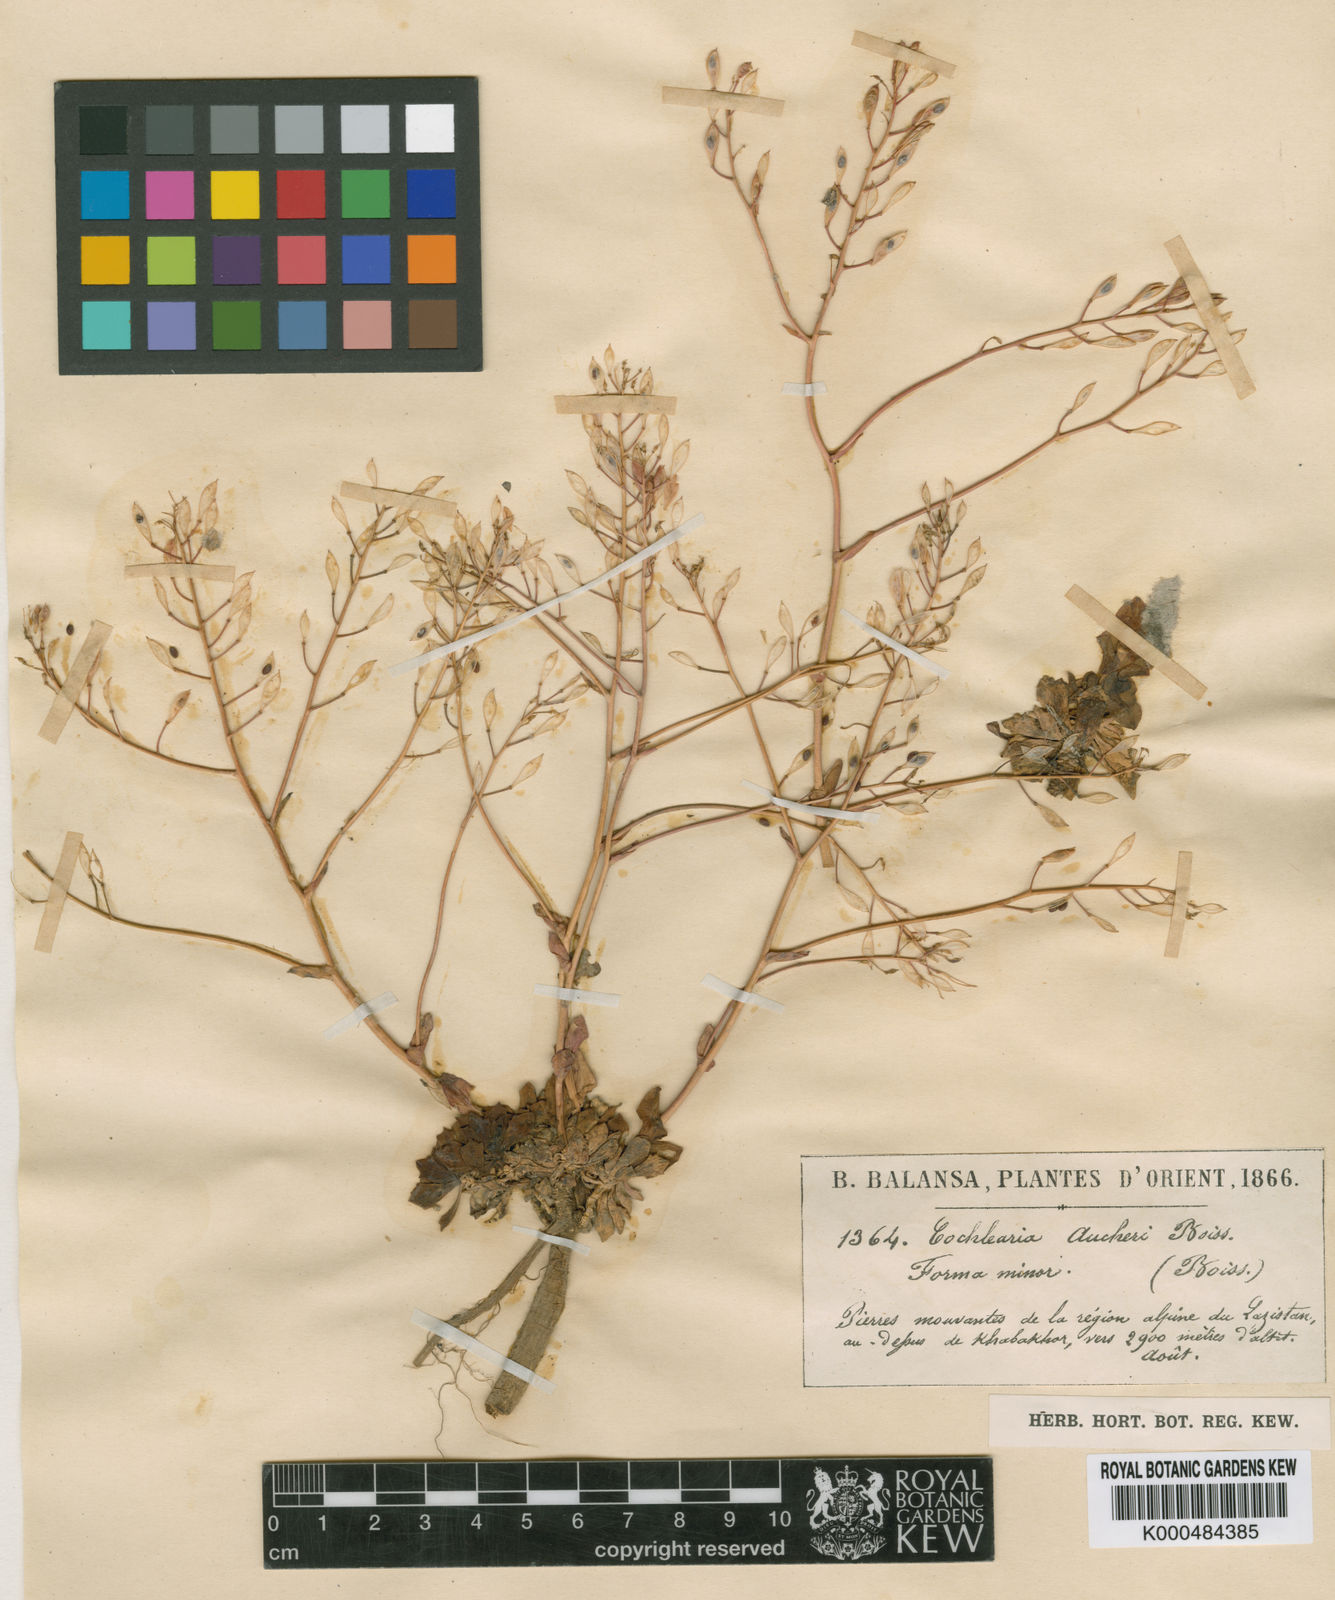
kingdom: Plantae
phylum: Tracheophyta
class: Magnoliopsida
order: Brassicales
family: Brassicaceae
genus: Pseudosempervivum
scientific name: Pseudosempervivum aucheri
